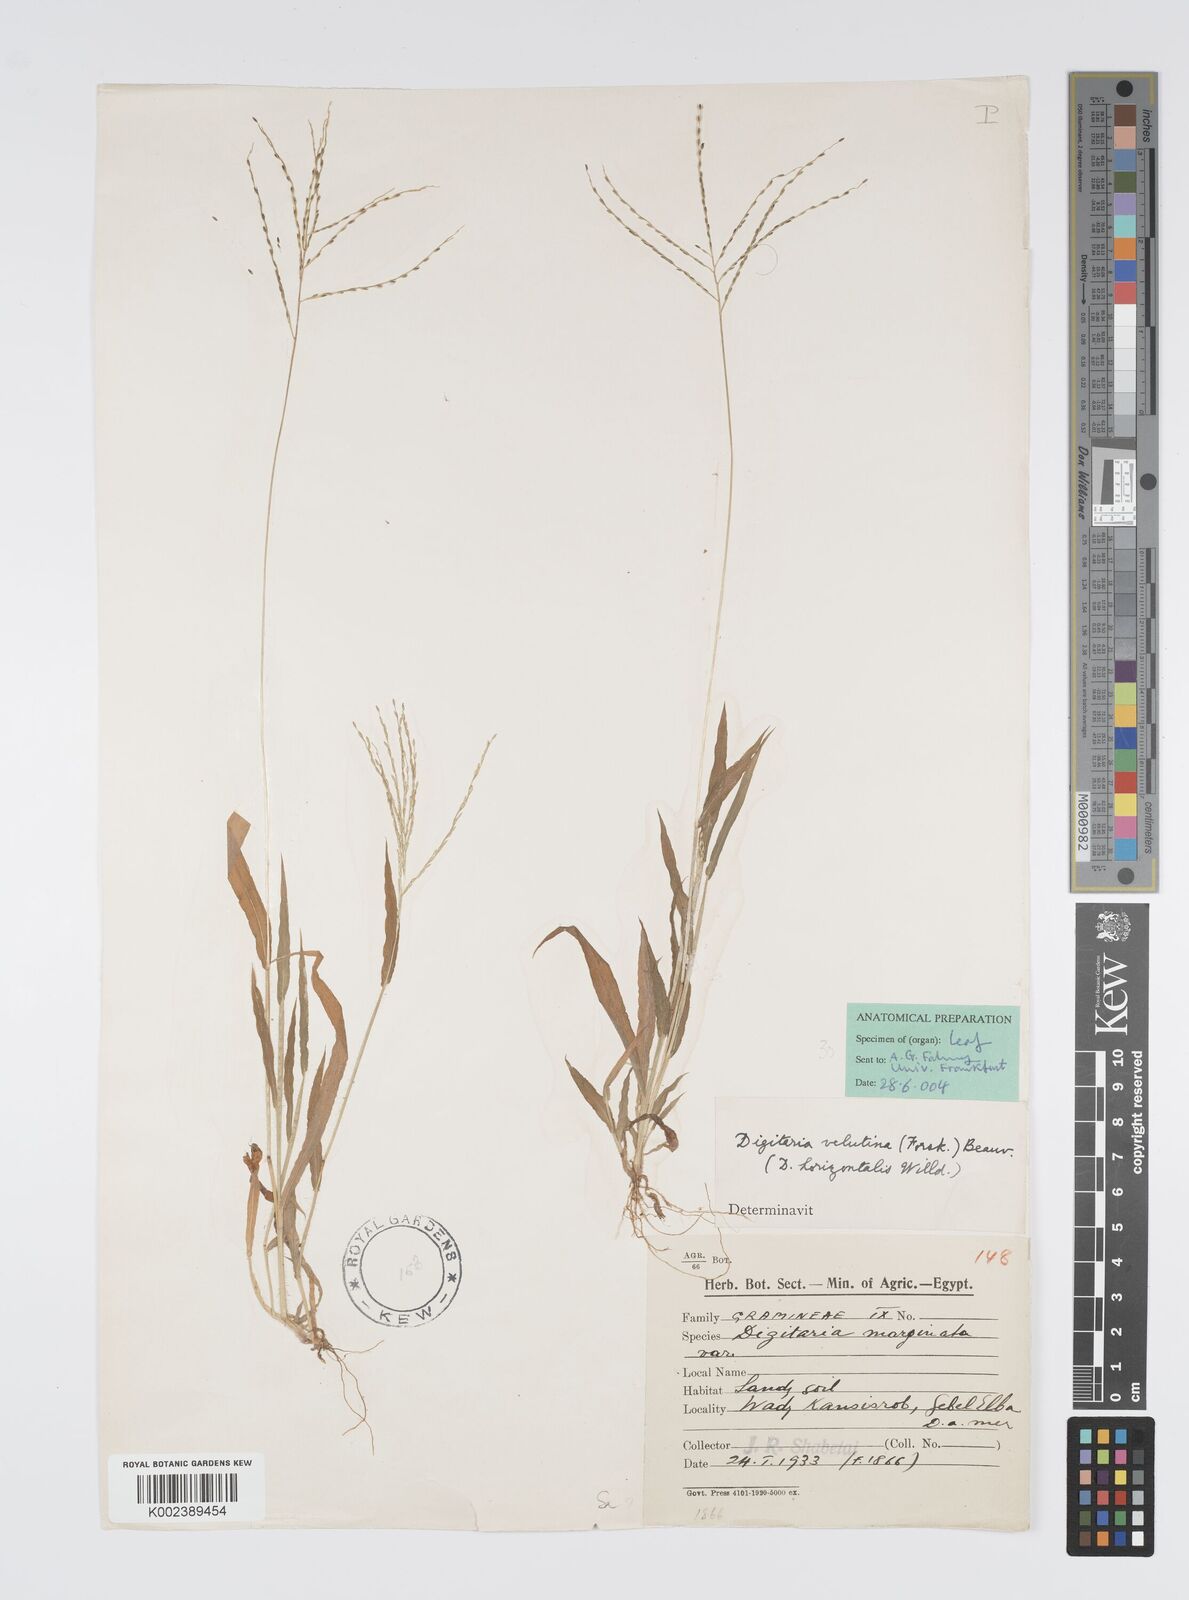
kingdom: Plantae
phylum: Tracheophyta
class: Liliopsida
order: Poales
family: Poaceae
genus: Digitaria
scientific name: Digitaria velutina
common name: Long-plume finger grass
